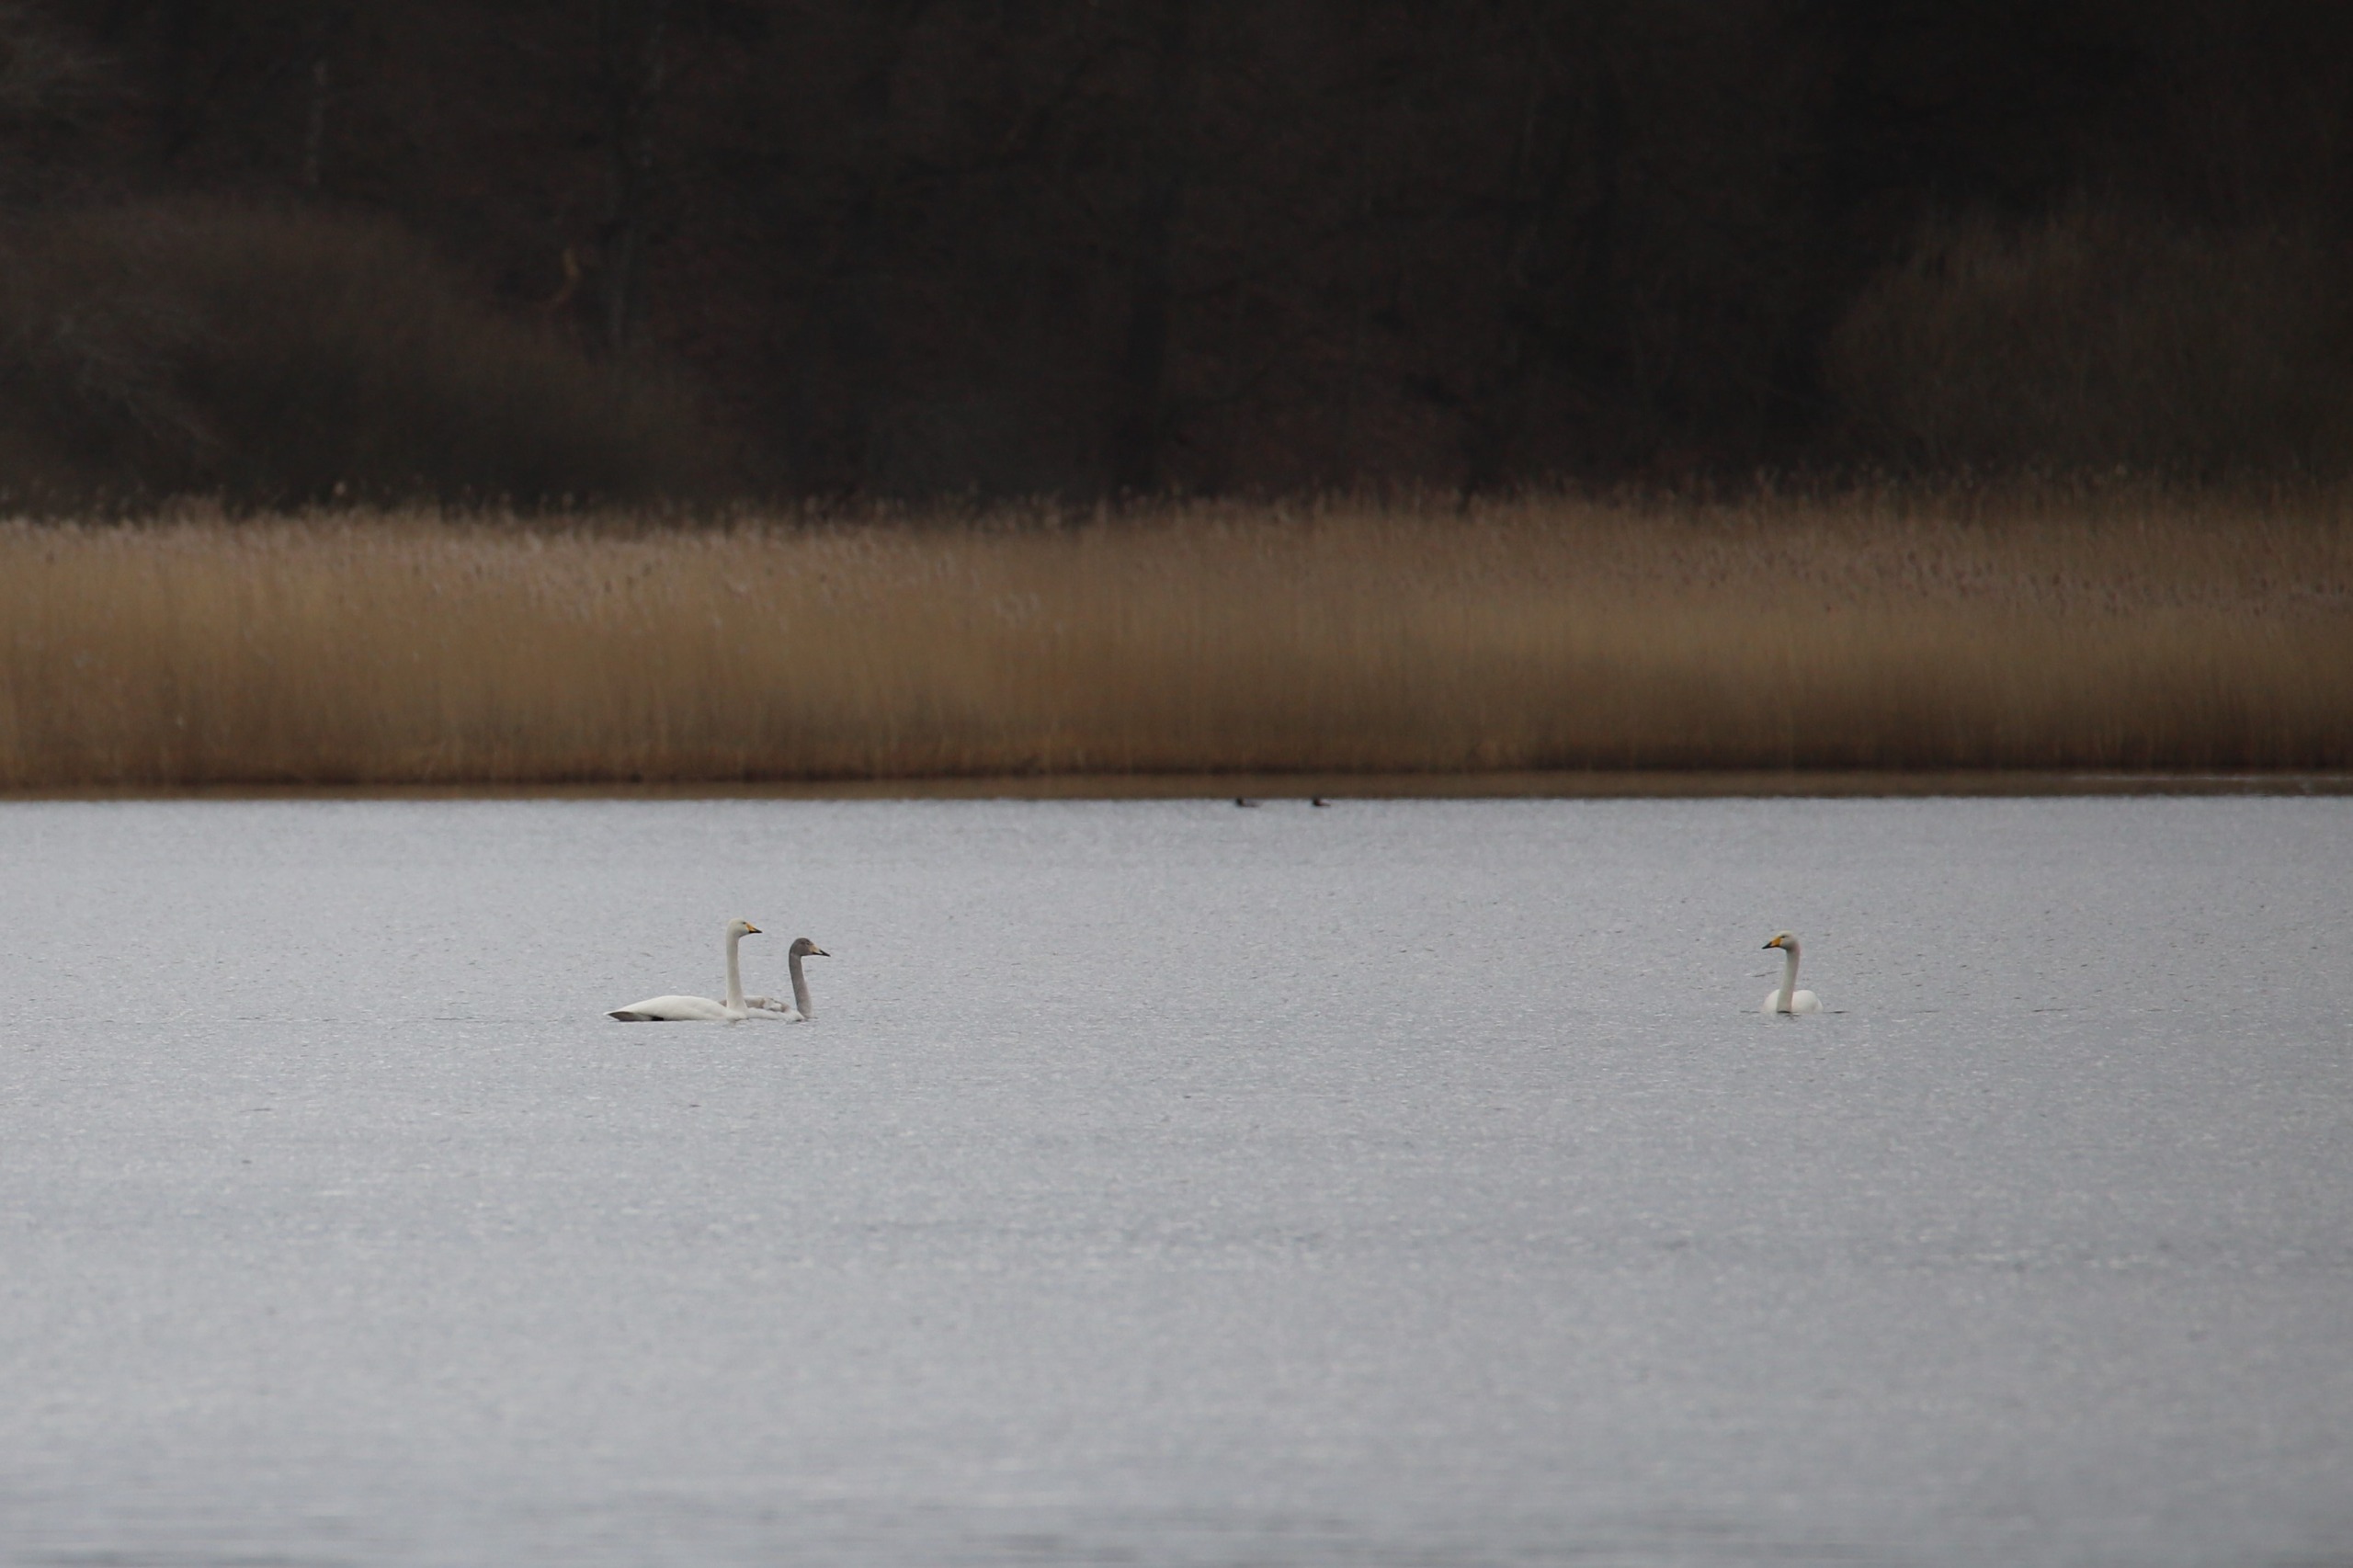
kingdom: Animalia
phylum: Chordata
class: Aves
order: Anseriformes
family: Anatidae
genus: Cygnus
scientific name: Cygnus cygnus
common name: Sangsvane
